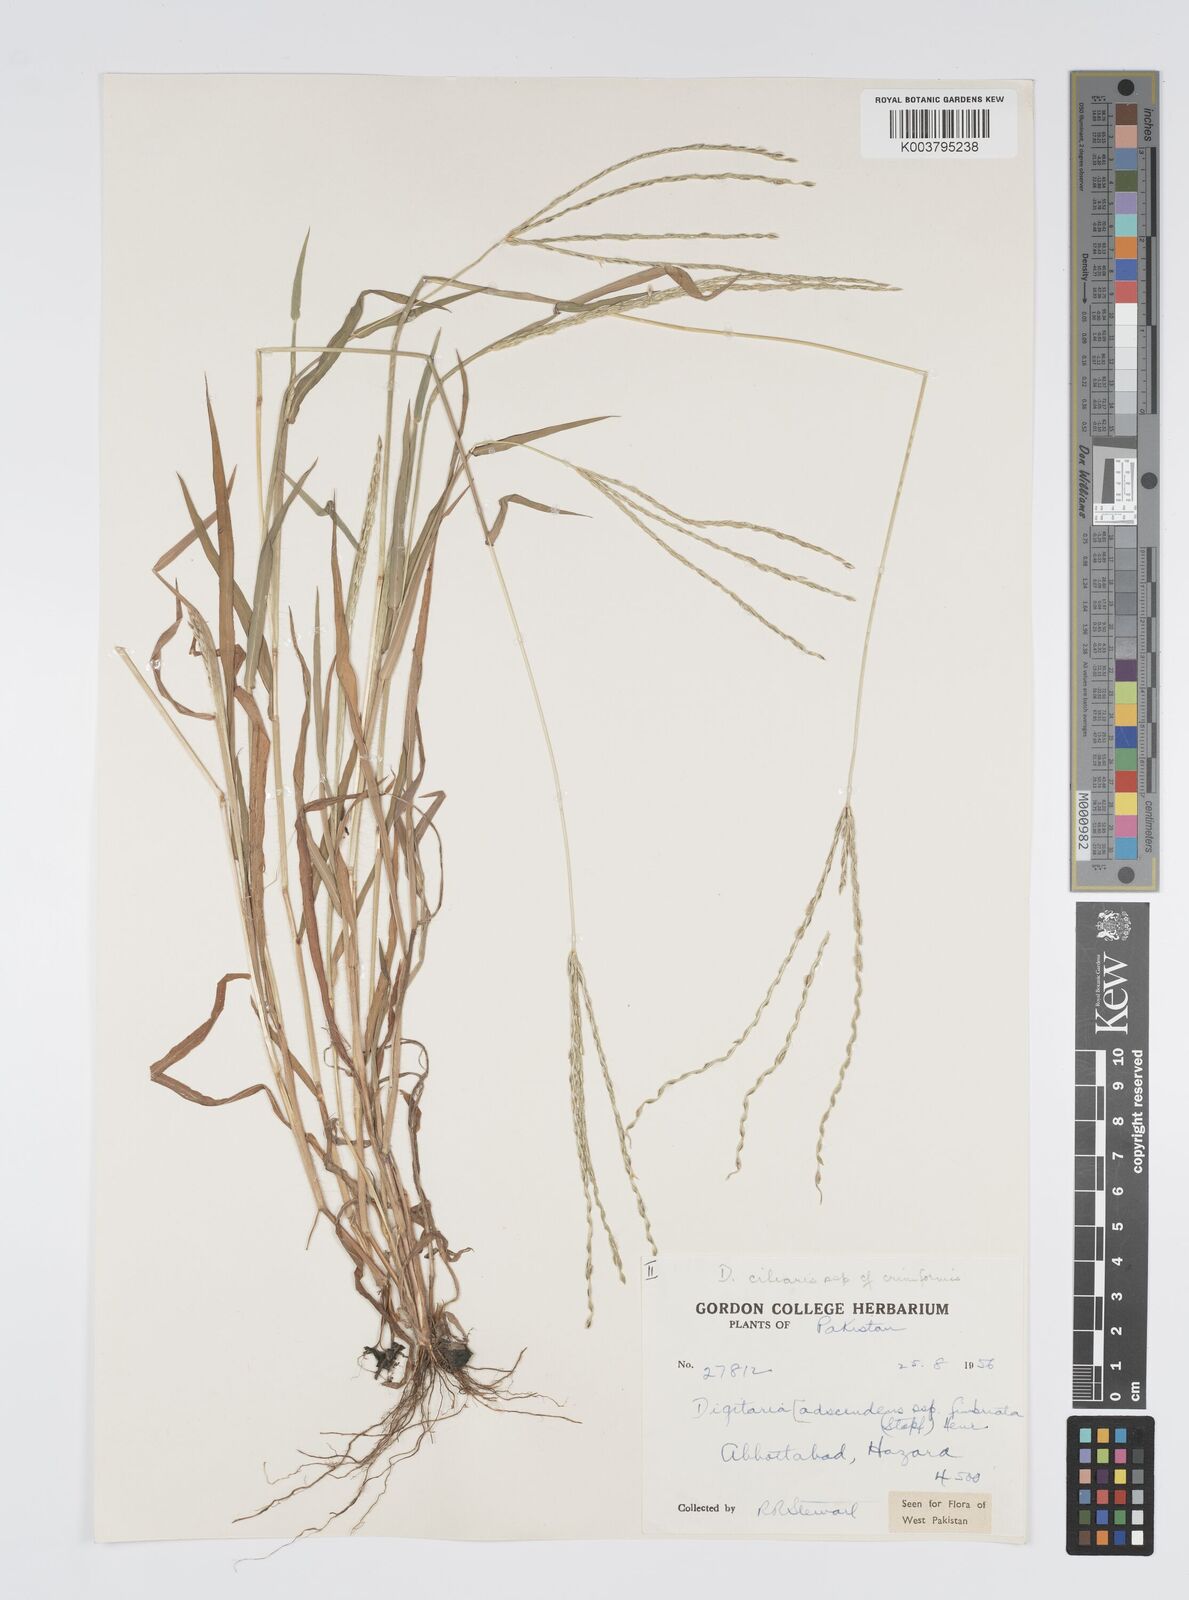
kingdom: Plantae
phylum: Tracheophyta
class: Liliopsida
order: Poales
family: Poaceae
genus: Digitaria
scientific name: Digitaria ciliaris
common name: Tropical finger-grass
